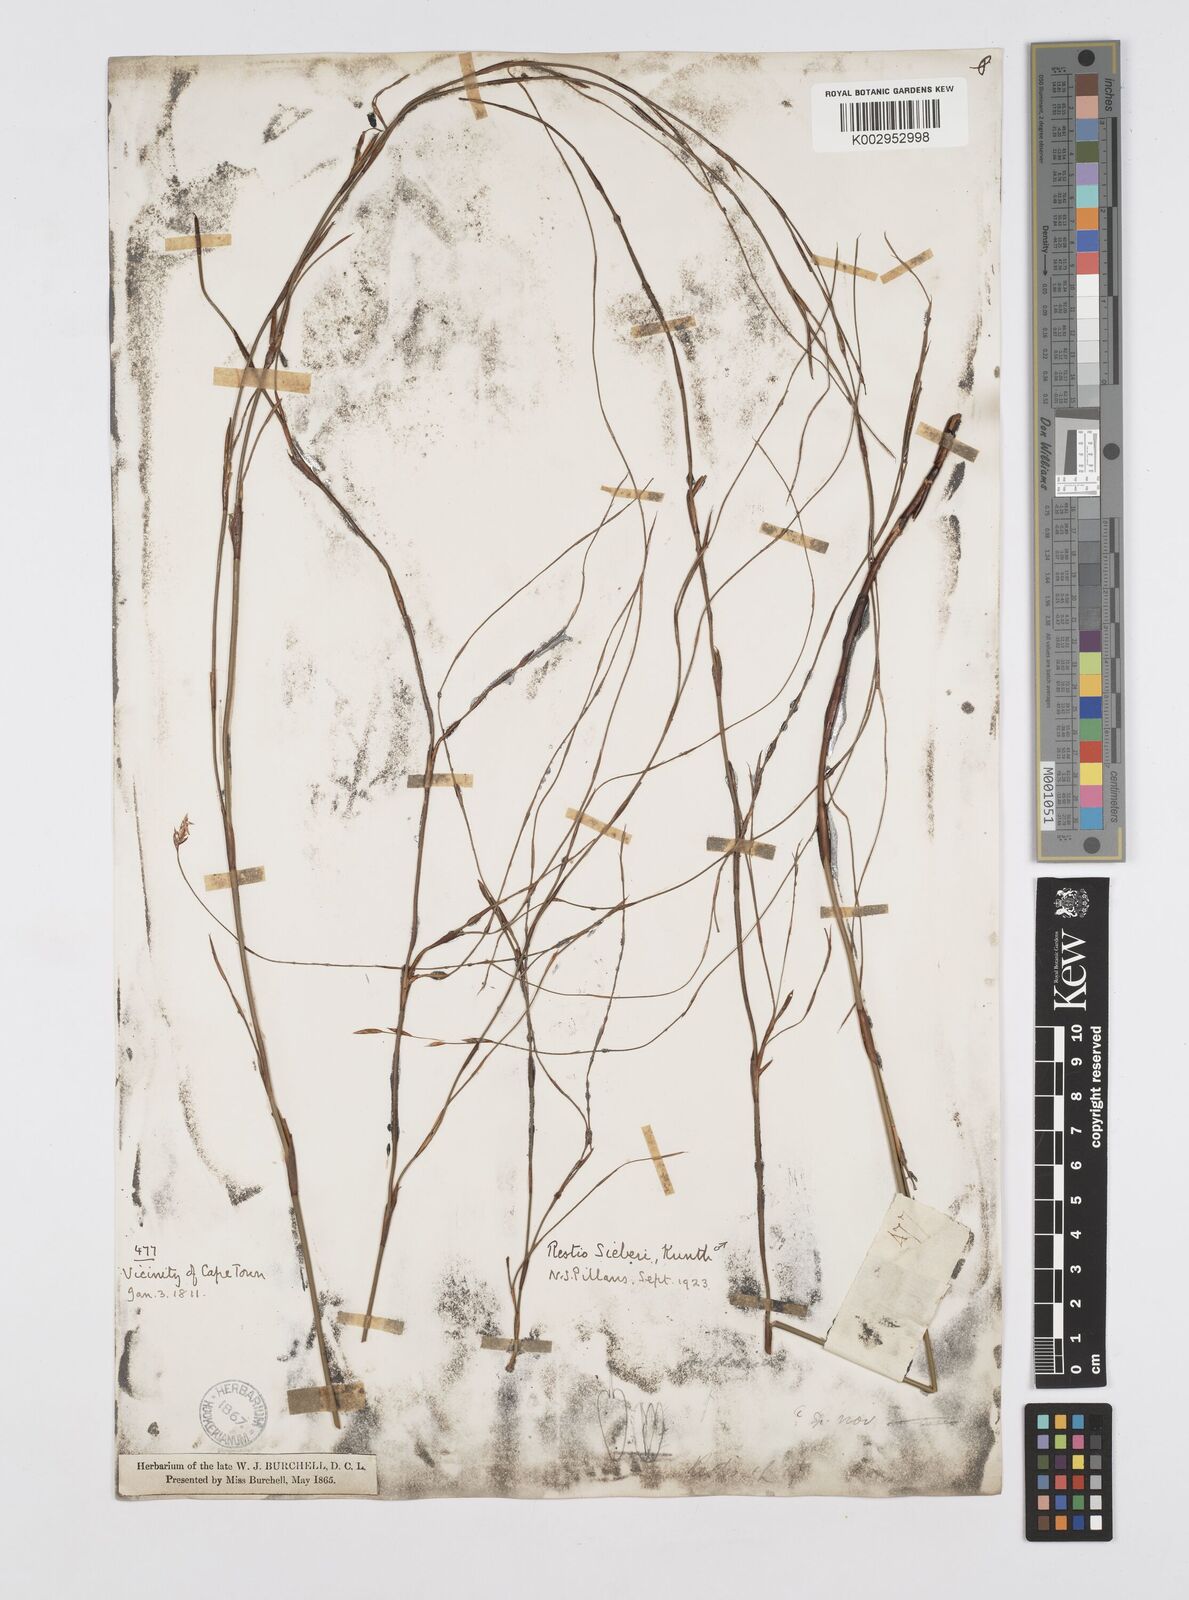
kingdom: Plantae
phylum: Tracheophyta
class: Liliopsida
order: Poales
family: Restionaceae
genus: Restio
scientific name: Restio sieberi
